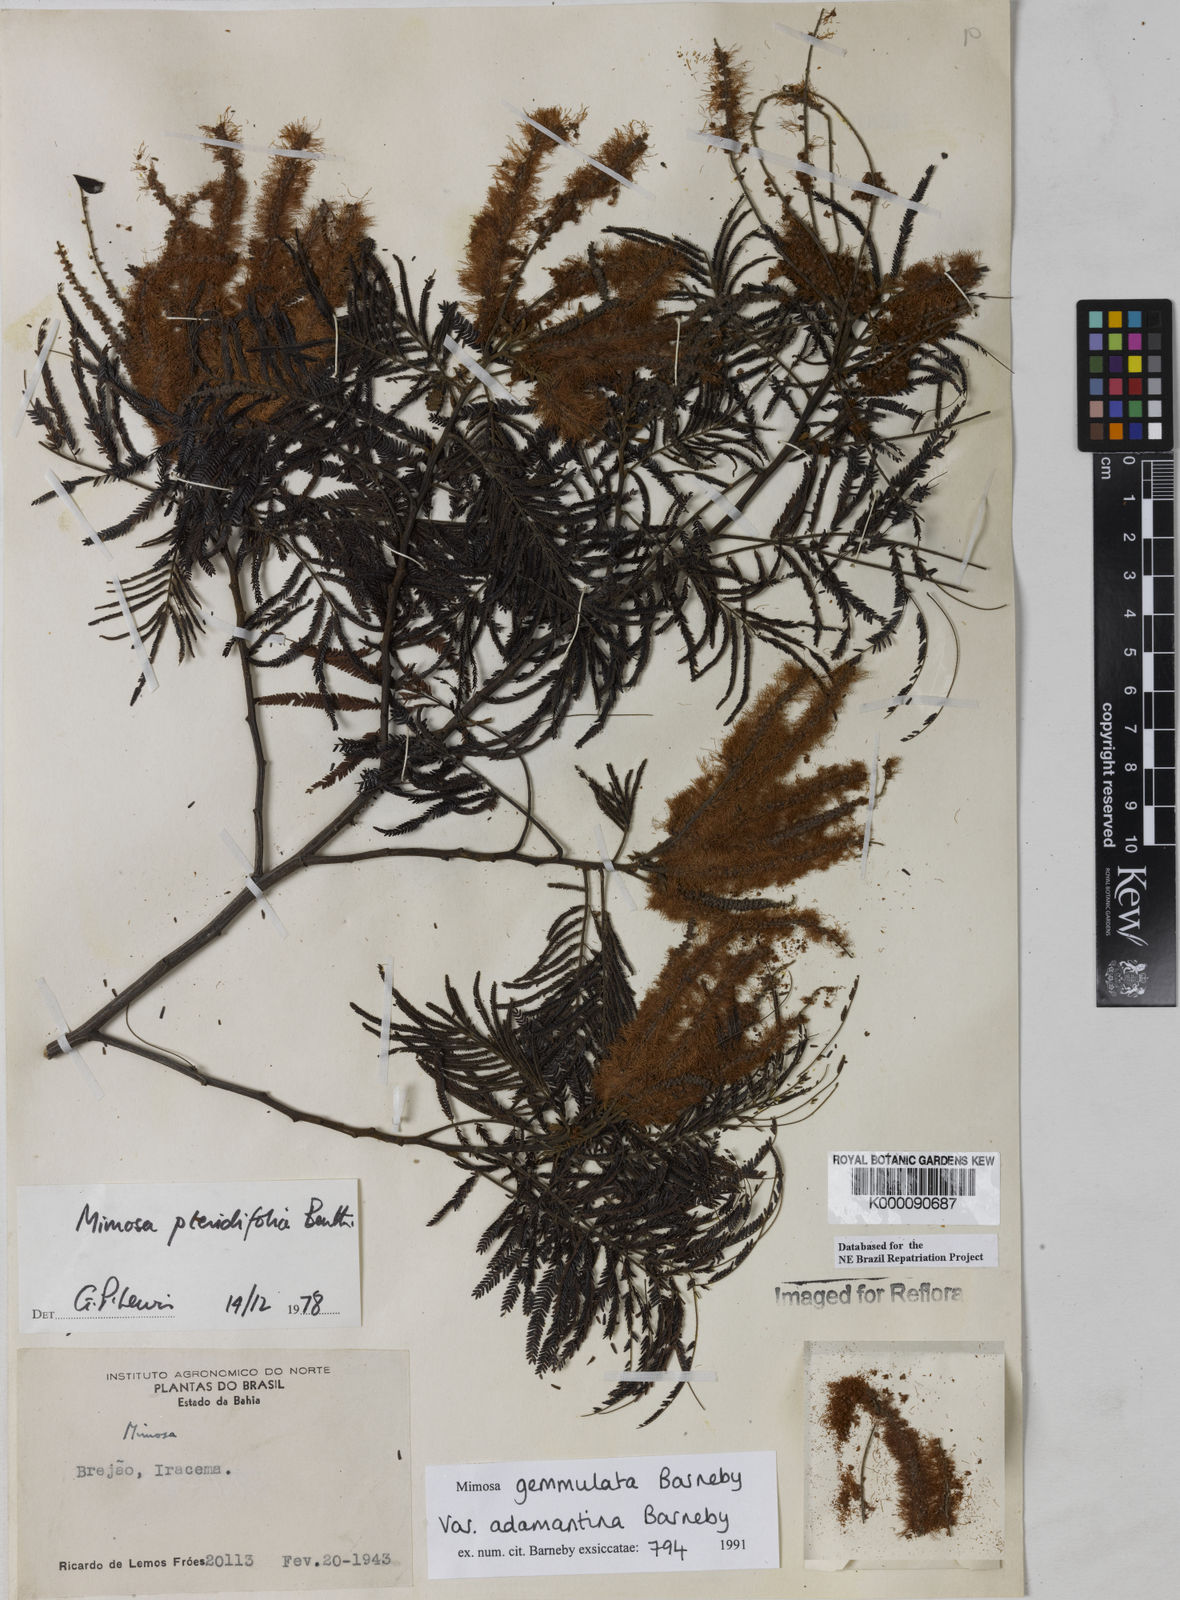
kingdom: Plantae
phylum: Tracheophyta
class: Magnoliopsida
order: Fabales
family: Fabaceae
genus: Mimosa
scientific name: Mimosa gemmulata
